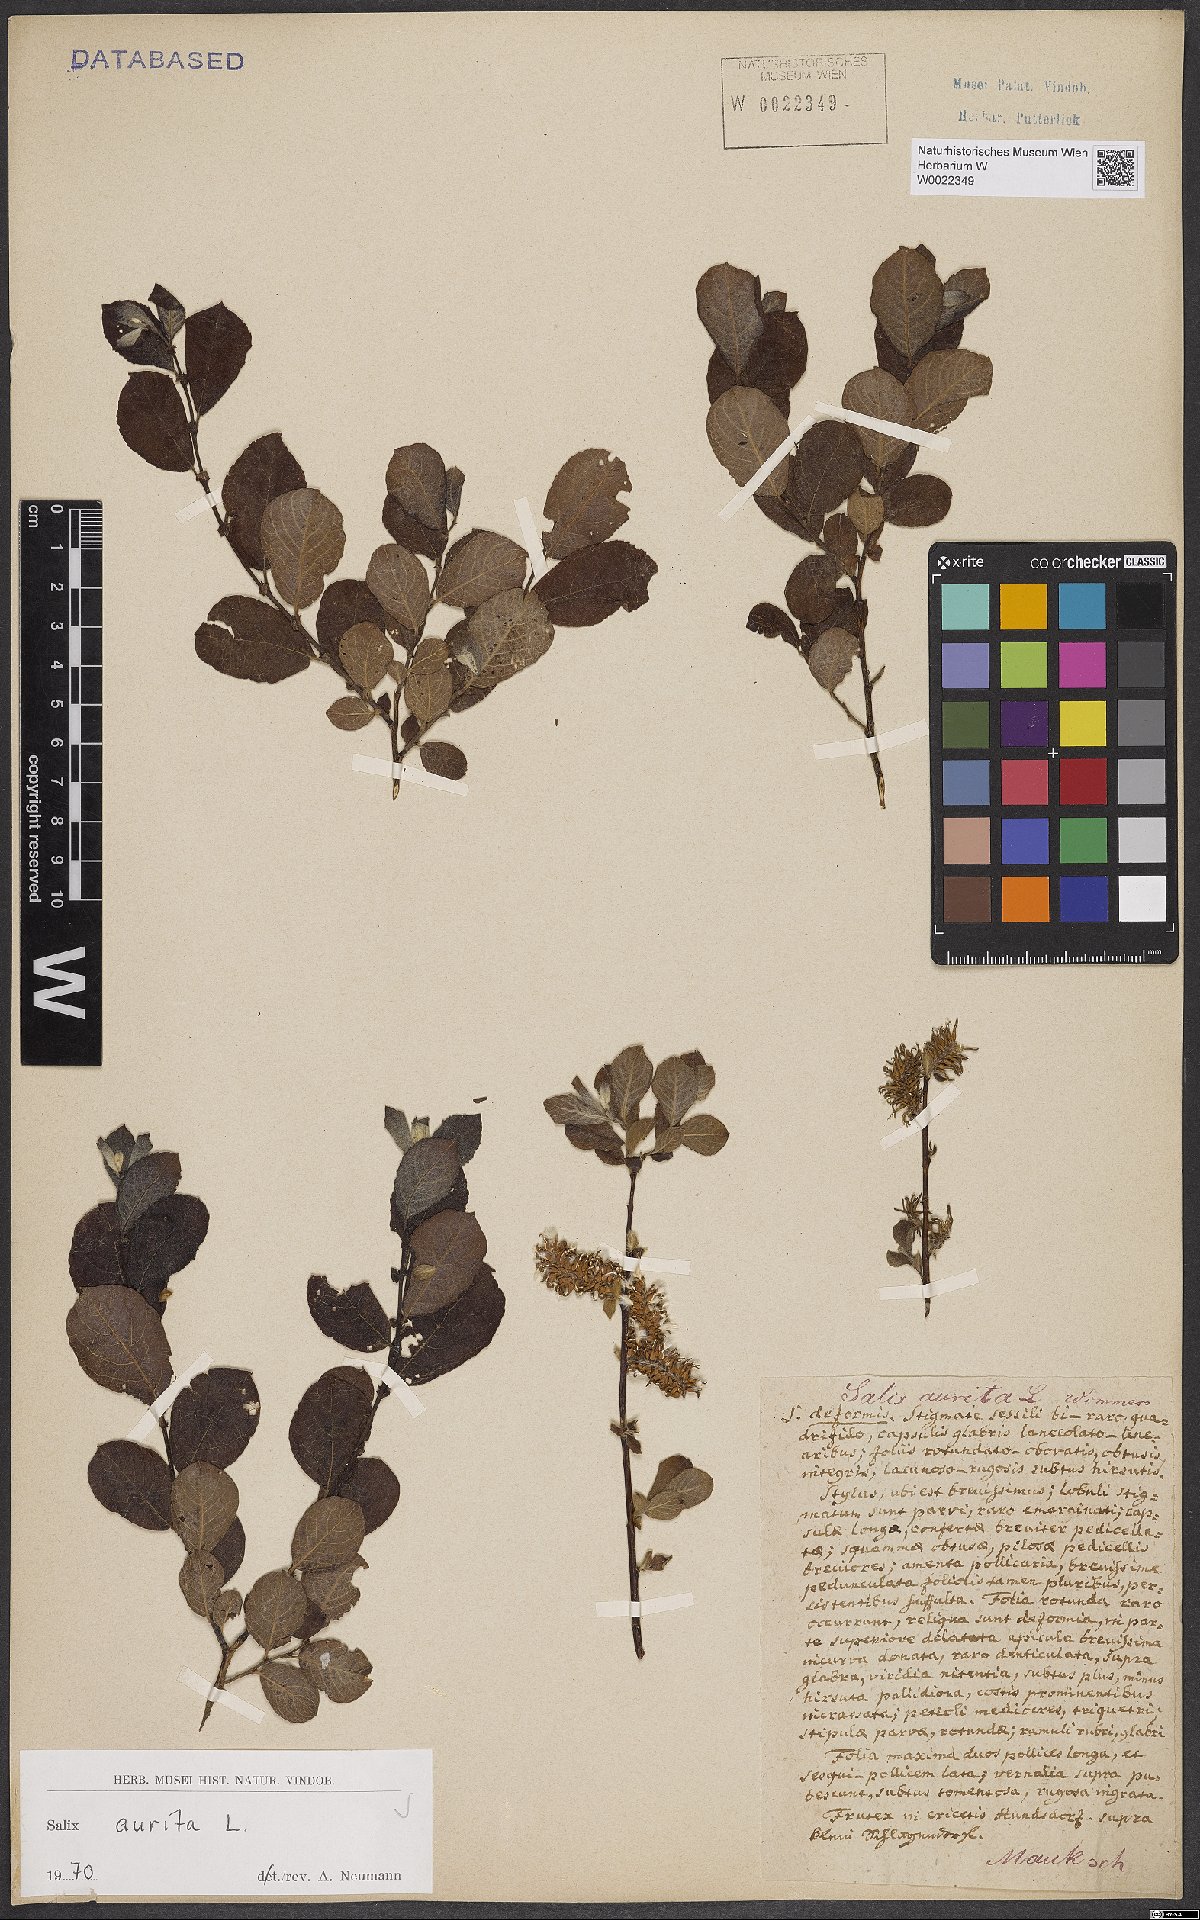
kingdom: Plantae
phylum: Tracheophyta
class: Magnoliopsida
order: Malpighiales
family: Salicaceae
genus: Salix
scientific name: Salix aurita
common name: Eared willow
